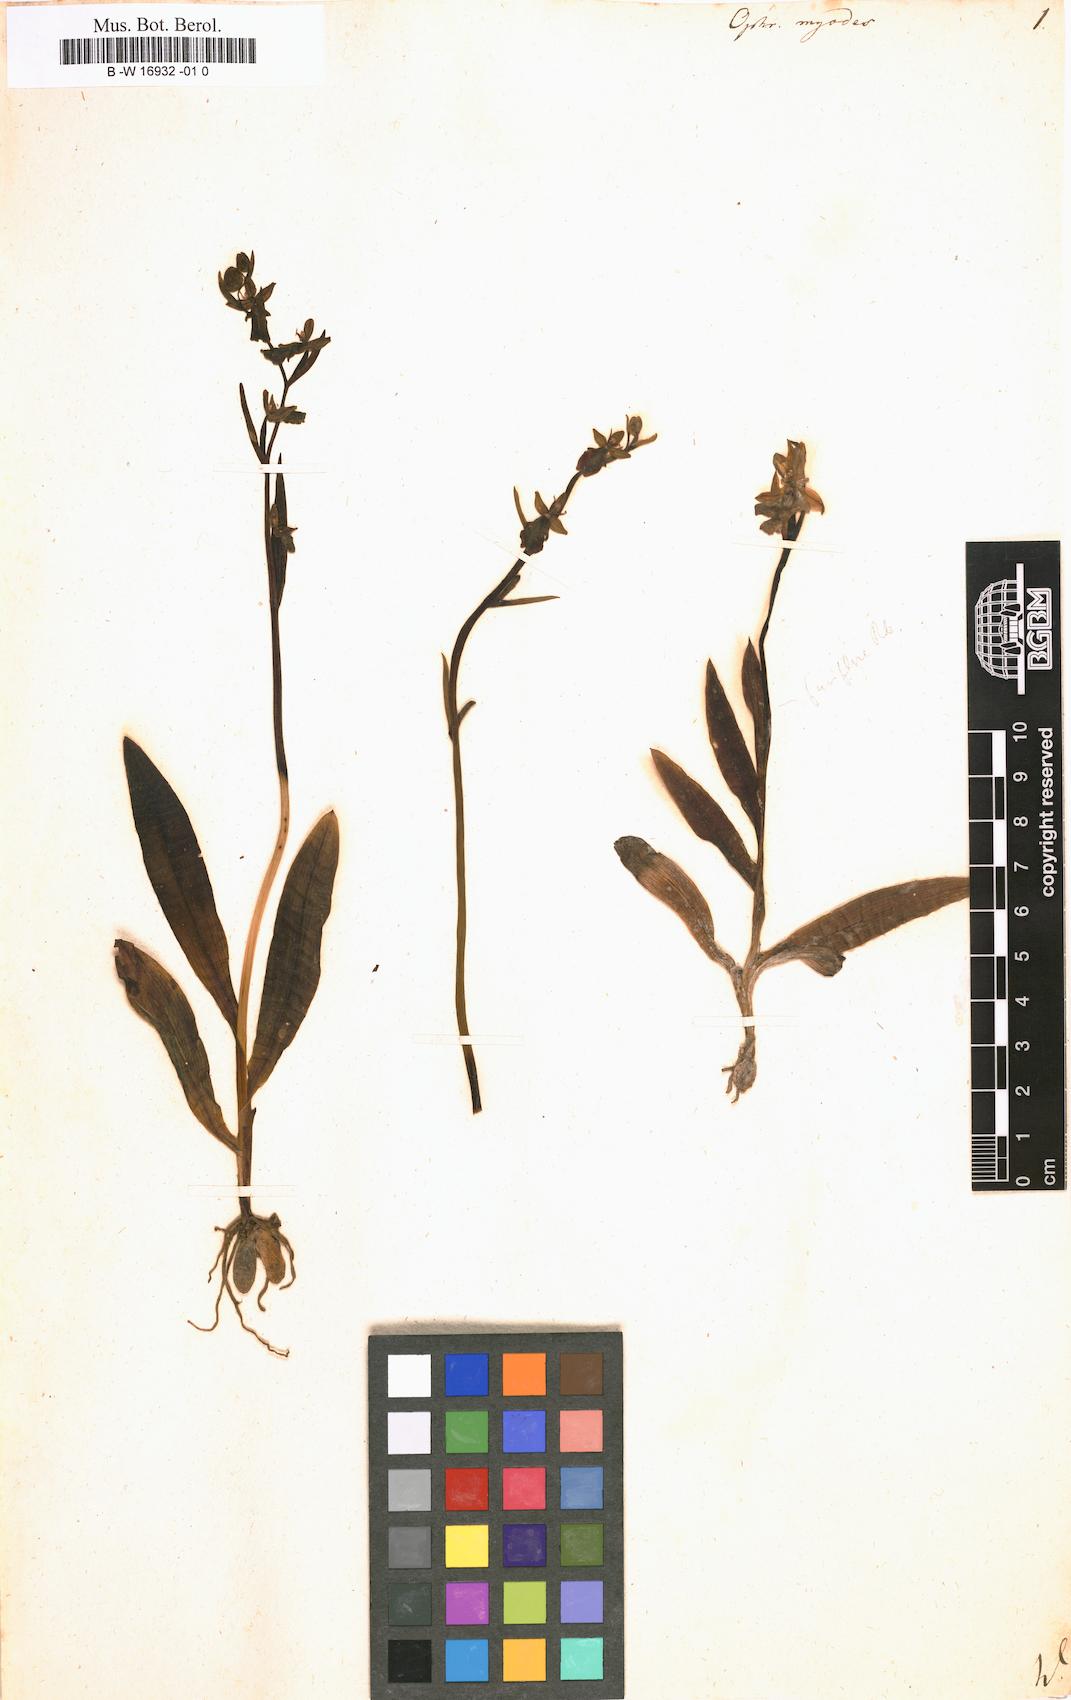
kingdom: Plantae
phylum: Tracheophyta
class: Liliopsida
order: Asparagales
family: Orchidaceae
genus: Ophrys
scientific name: Ophrys
